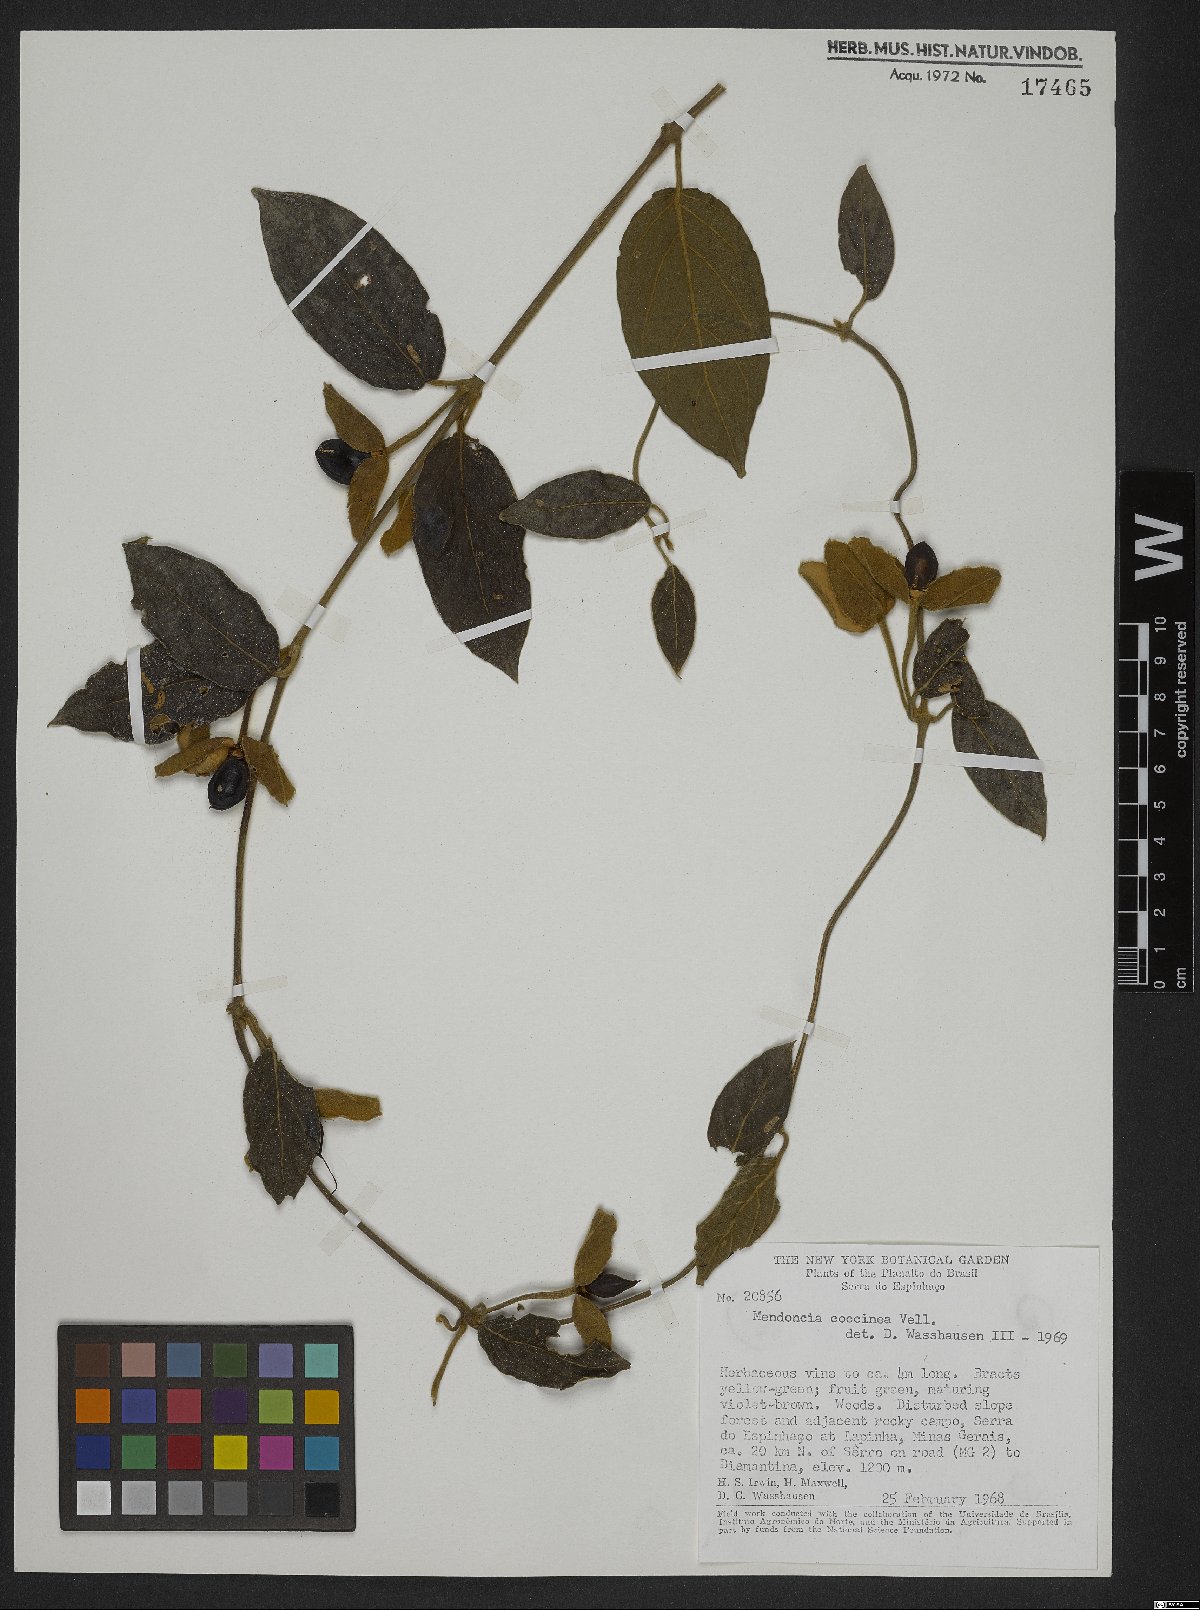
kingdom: Plantae
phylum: Tracheophyta
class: Magnoliopsida
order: Lamiales
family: Acanthaceae
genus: Mendoncia
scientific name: Mendoncia coccinea
